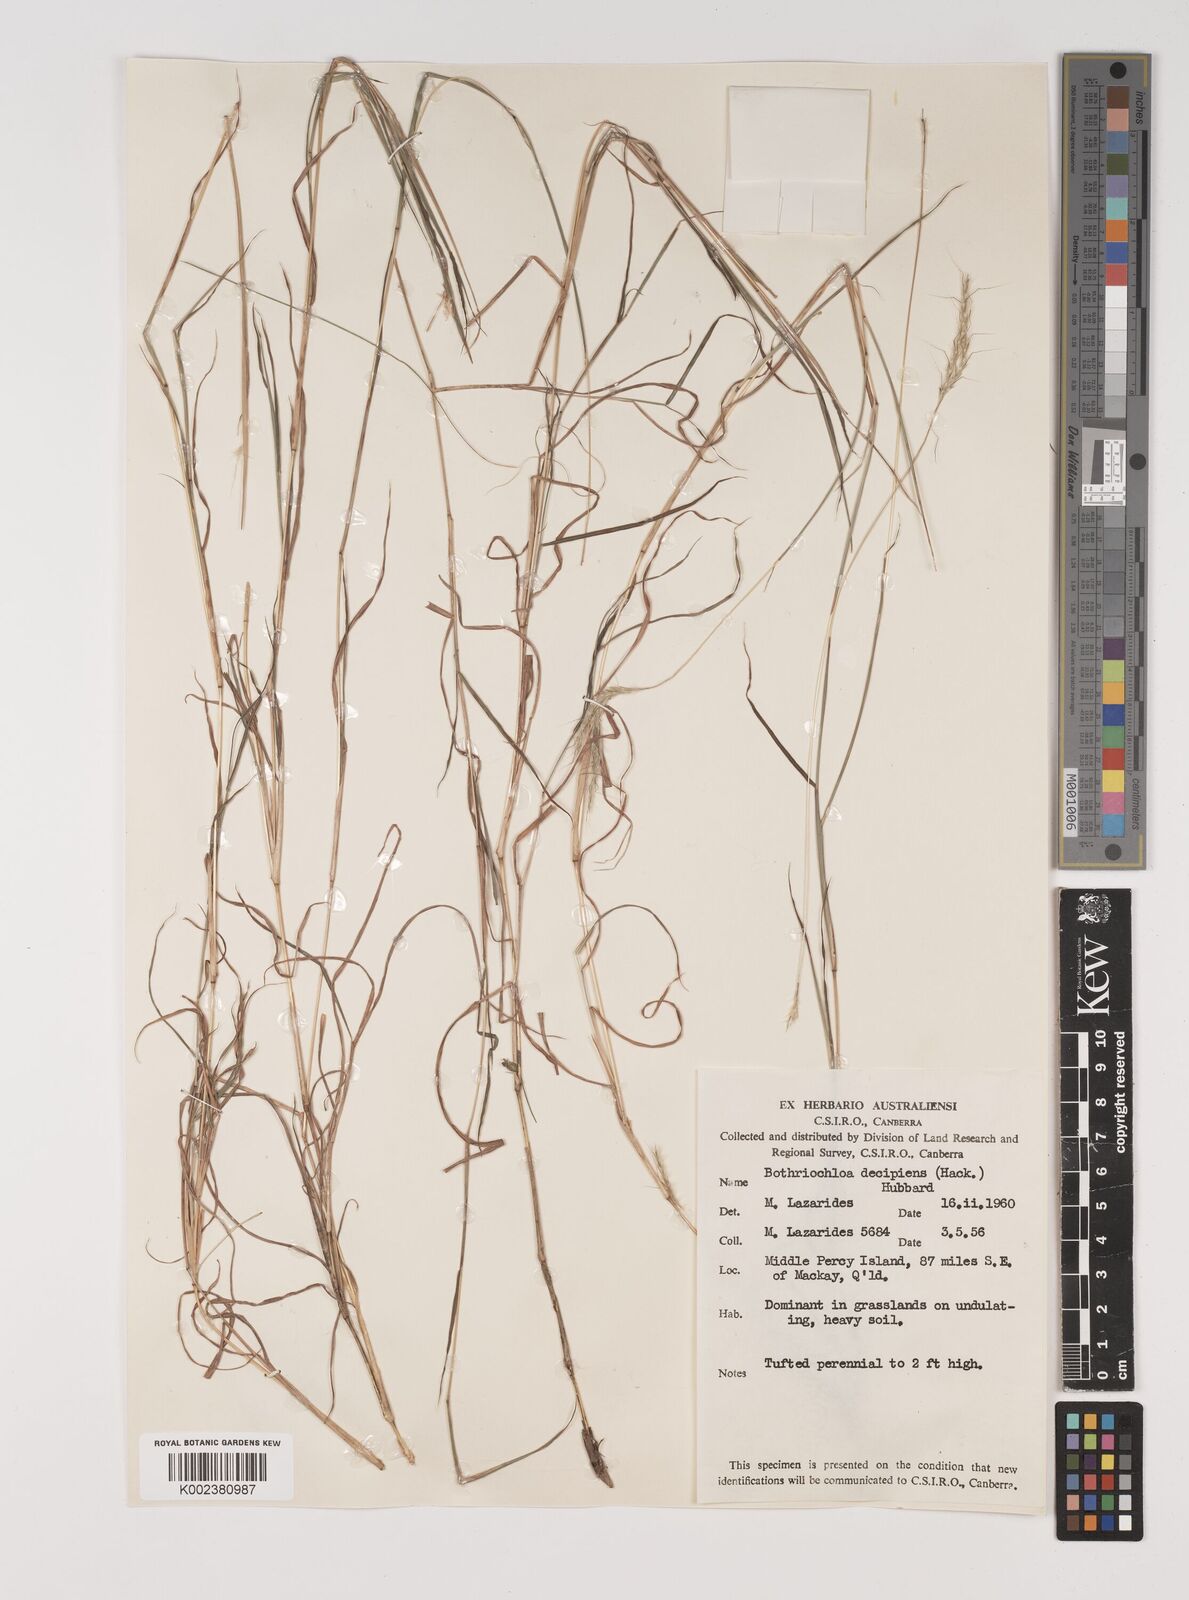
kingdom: Plantae
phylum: Tracheophyta
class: Liliopsida
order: Poales
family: Poaceae
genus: Bothriochloa
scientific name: Bothriochloa decipiens
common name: Pitted-bluegrass
